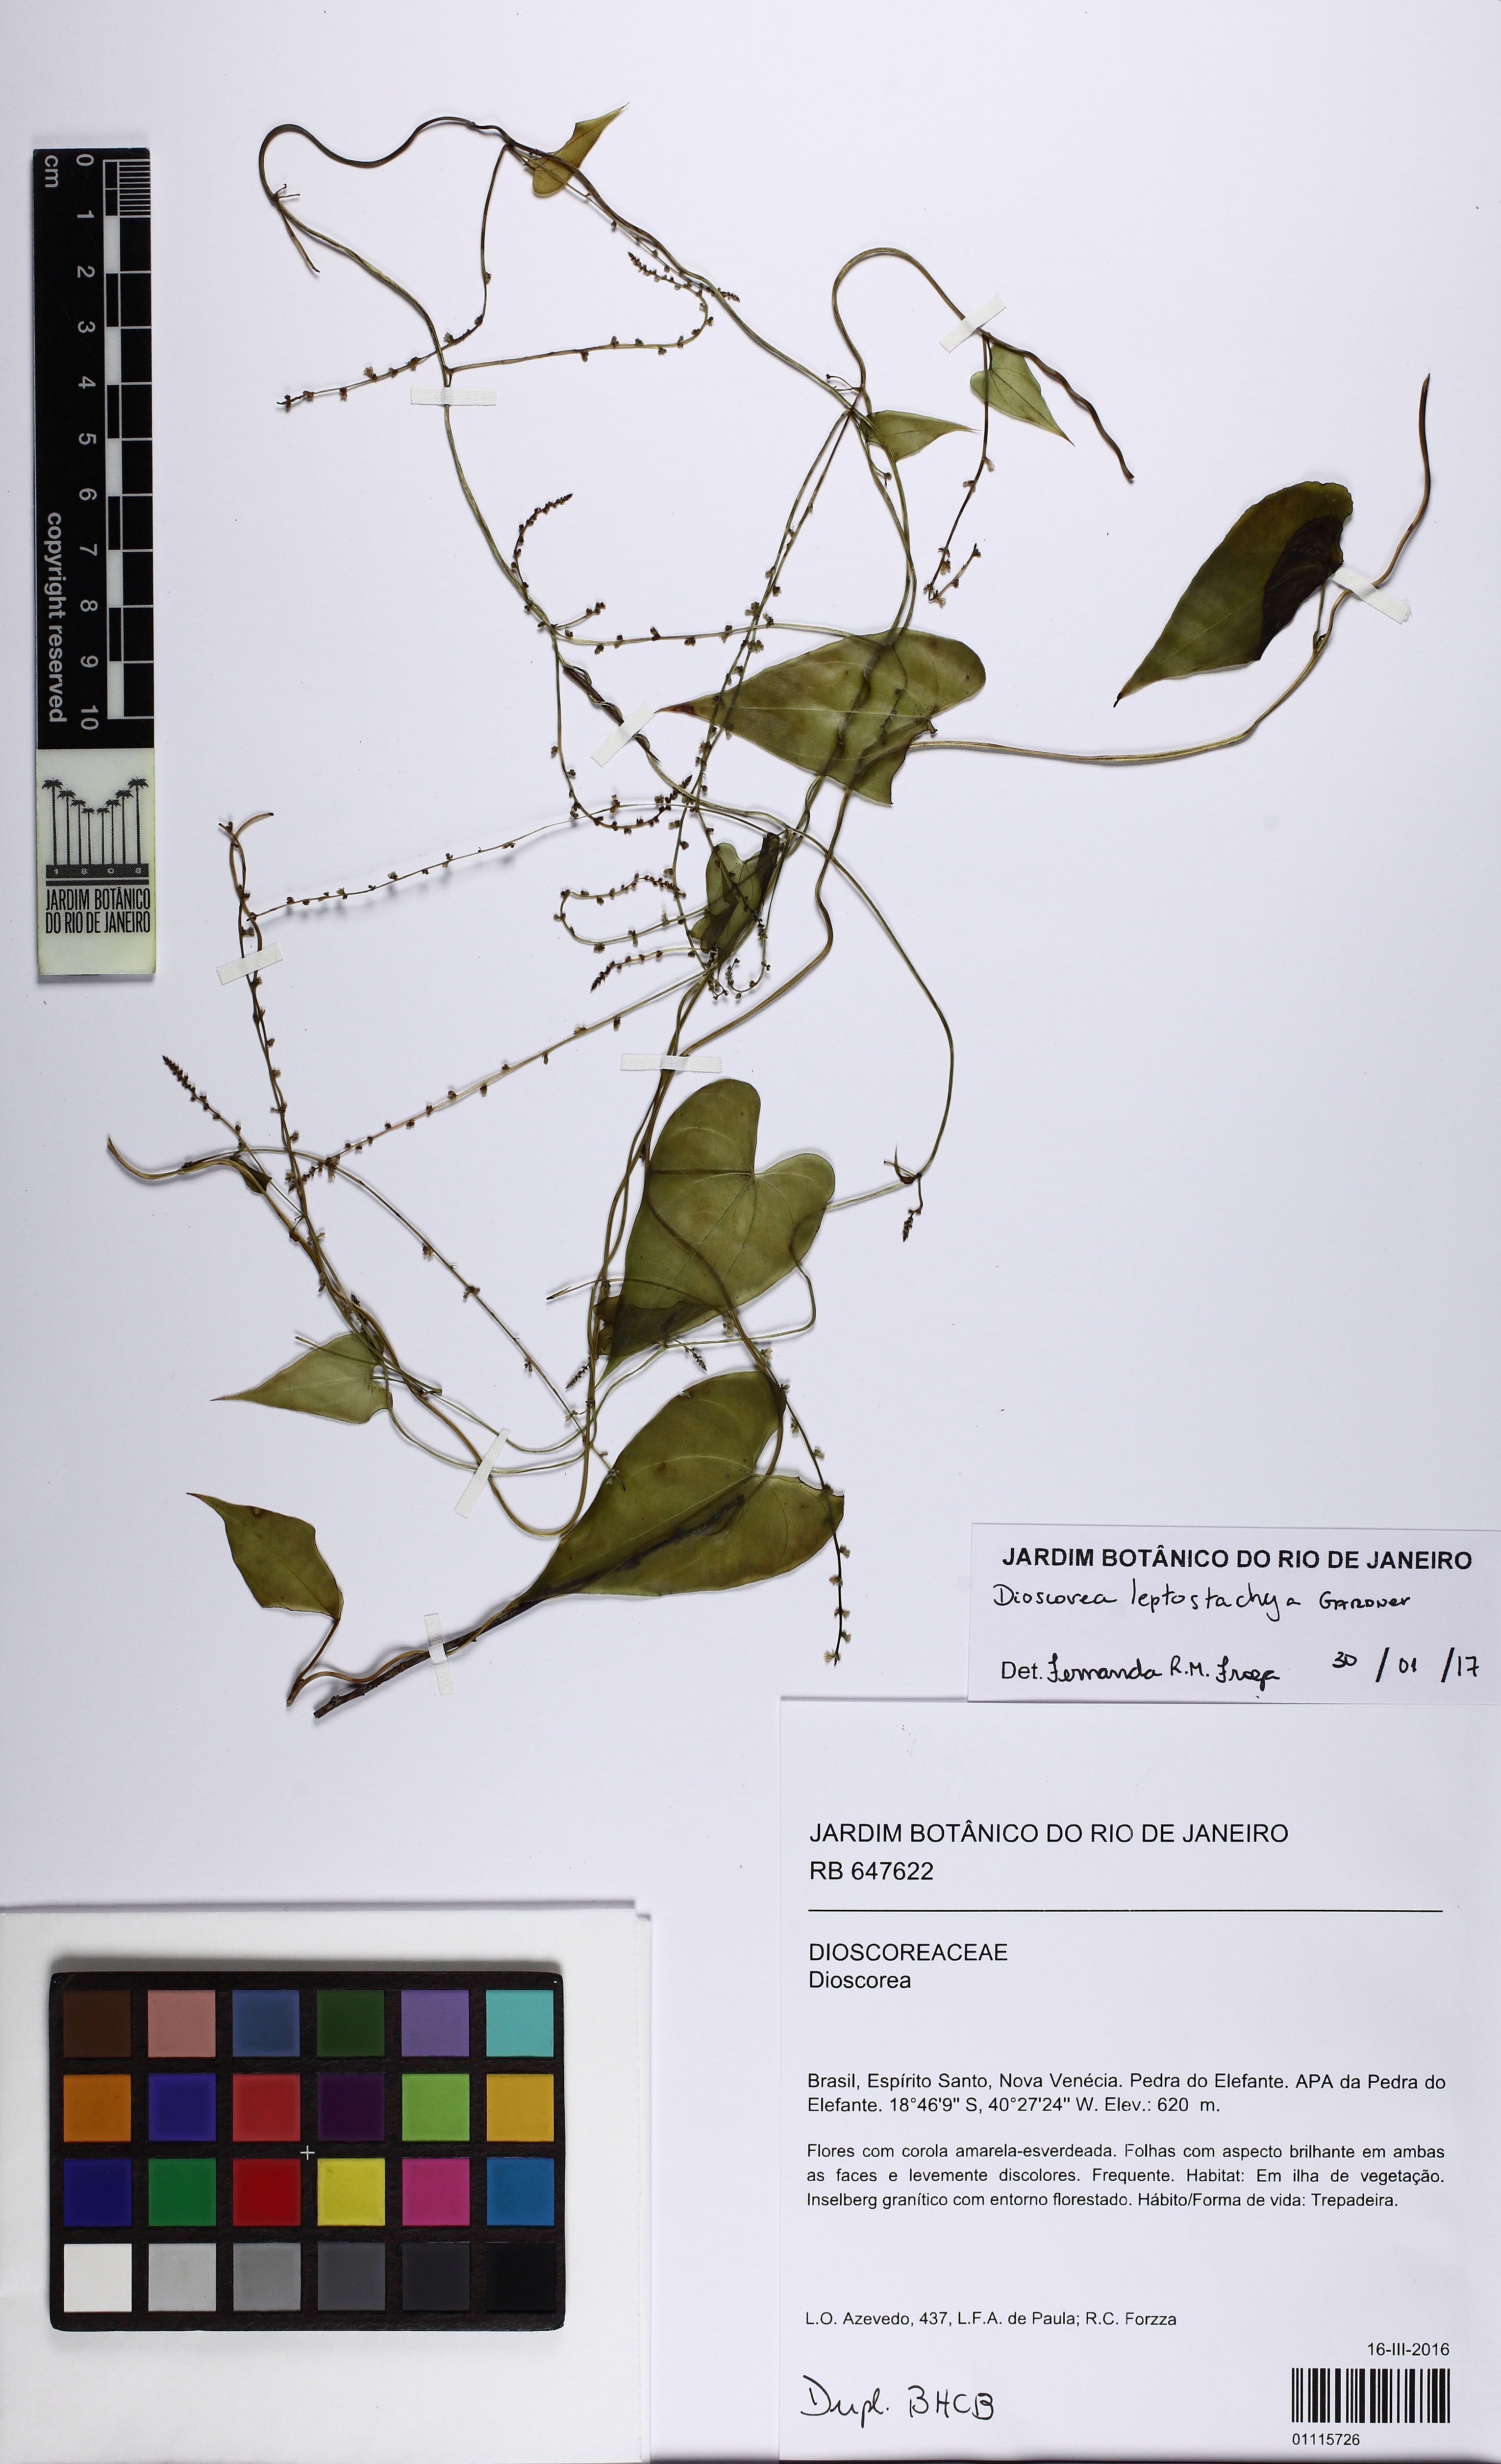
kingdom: Plantae
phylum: Tracheophyta
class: Liliopsida
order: Dioscoreales
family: Dioscoreaceae
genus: Dioscorea
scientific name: Dioscorea marginata
